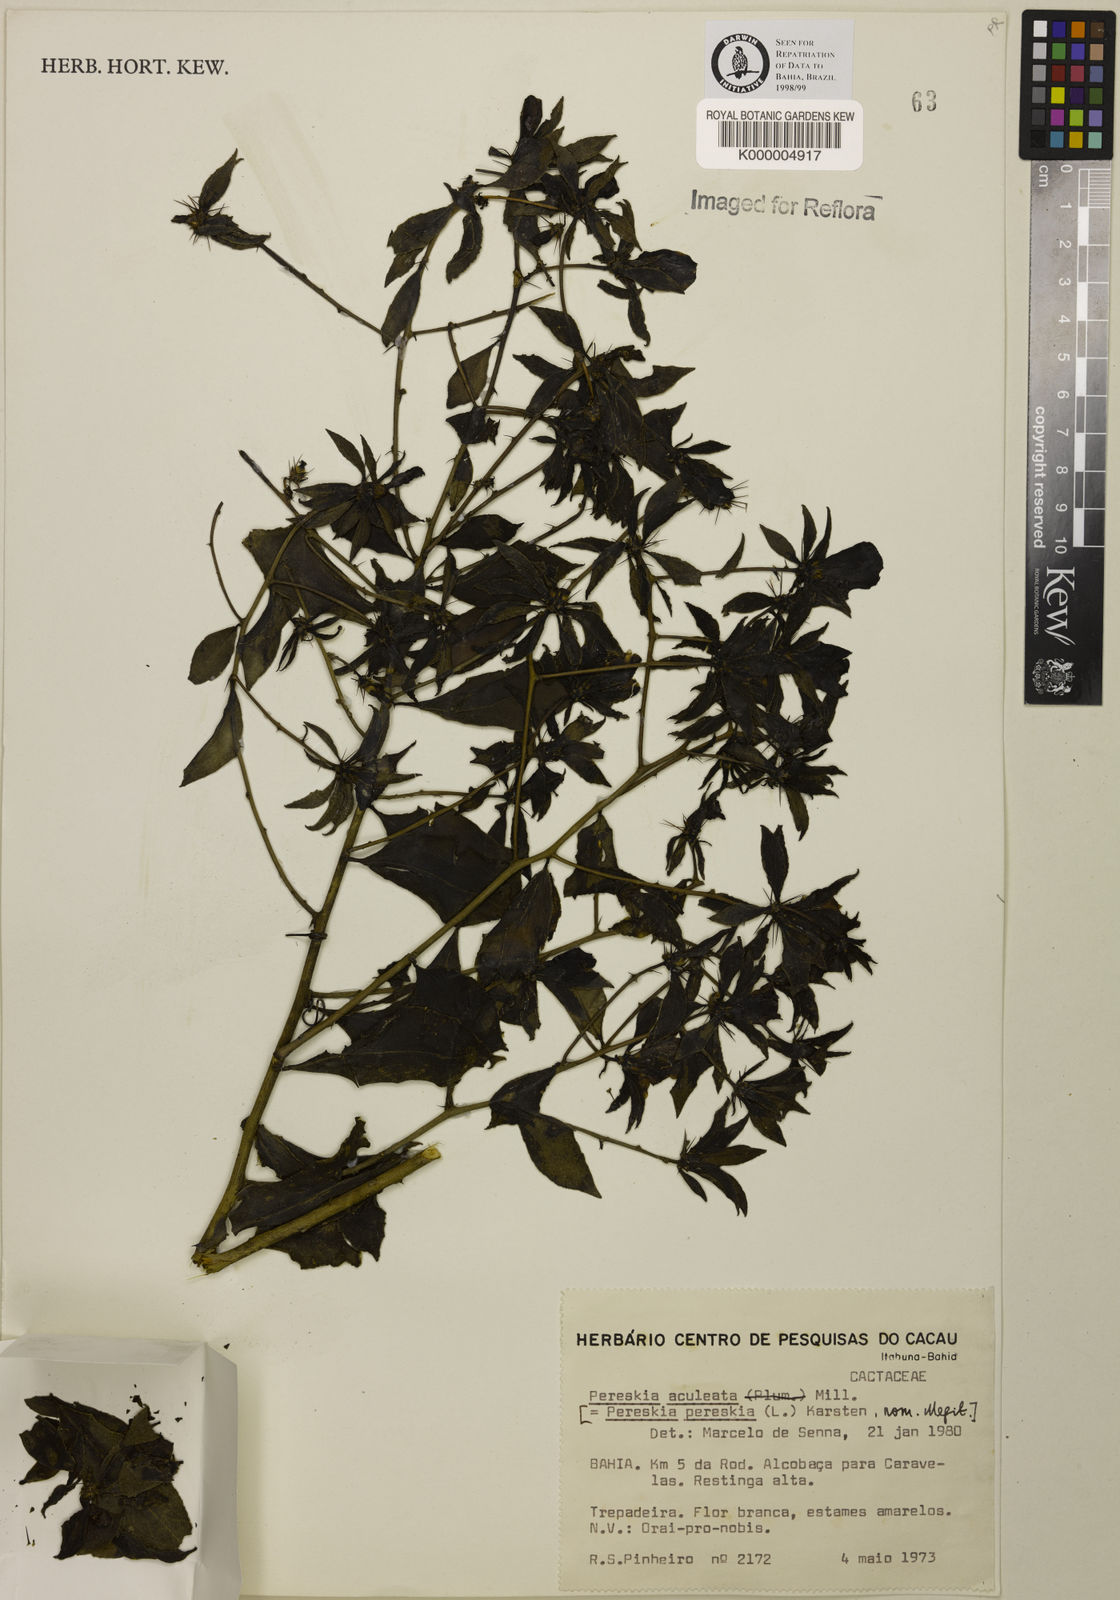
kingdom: Plantae
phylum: Tracheophyta
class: Magnoliopsida
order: Caryophyllales
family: Cactaceae
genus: Pereskia
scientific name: Pereskia aculeata
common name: Barbados gooseberry
